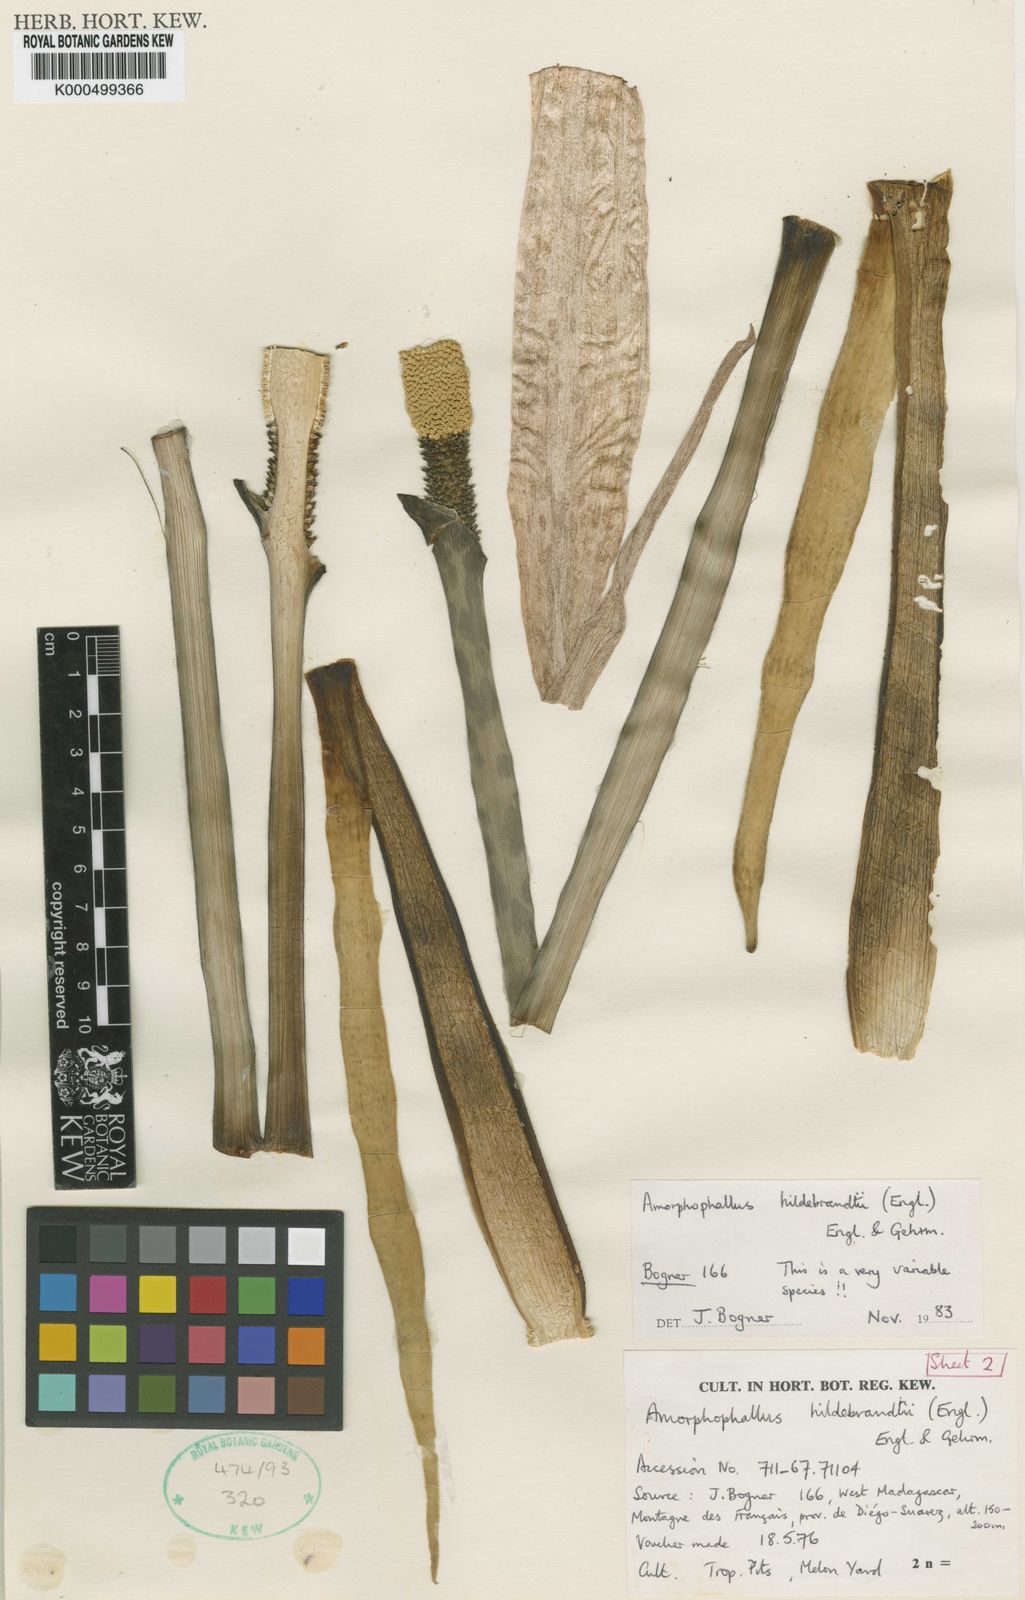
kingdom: Plantae
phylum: Tracheophyta
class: Liliopsida
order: Alismatales
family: Araceae
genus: Amorphophallus
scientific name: Amorphophallus hildebrandtii
